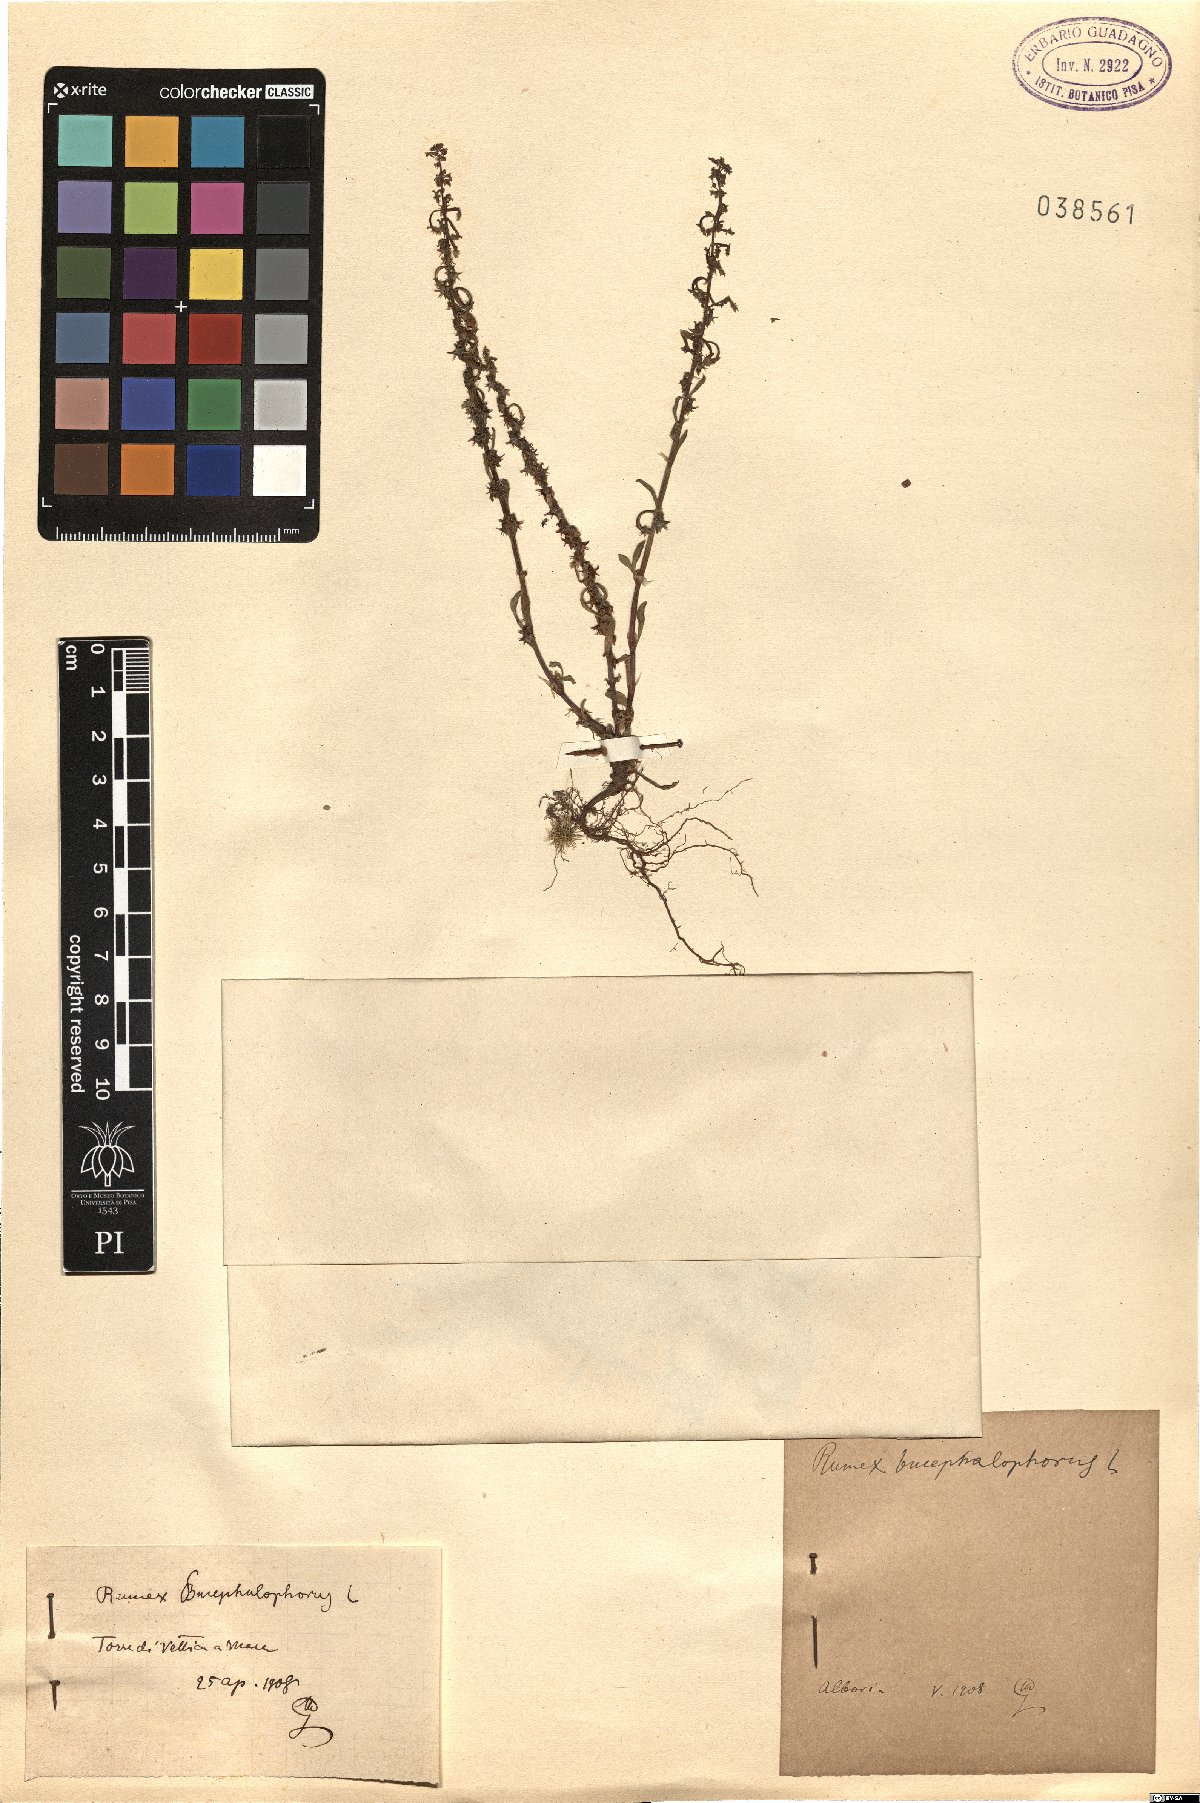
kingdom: Plantae
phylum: Tracheophyta
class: Magnoliopsida
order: Caryophyllales
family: Polygonaceae
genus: Rumex
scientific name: Rumex bucephalophorus
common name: Red dock
